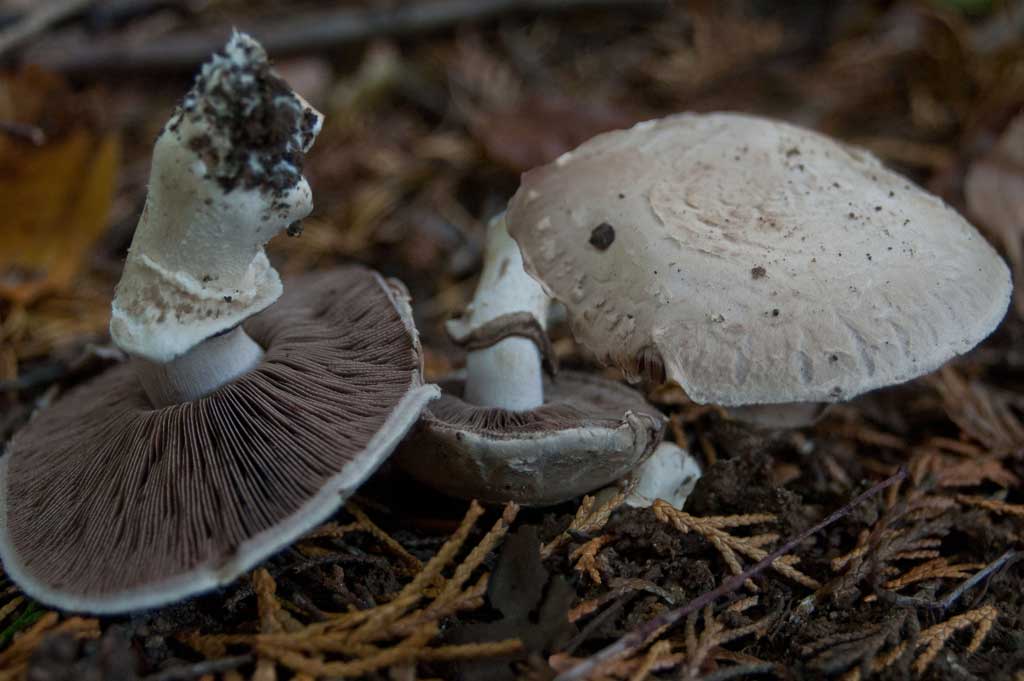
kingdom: Fungi
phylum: Basidiomycota
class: Agaricomycetes
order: Agaricales
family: Agaricaceae
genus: Agaricus
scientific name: Agaricus subfloccosus
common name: randskællet champignon
